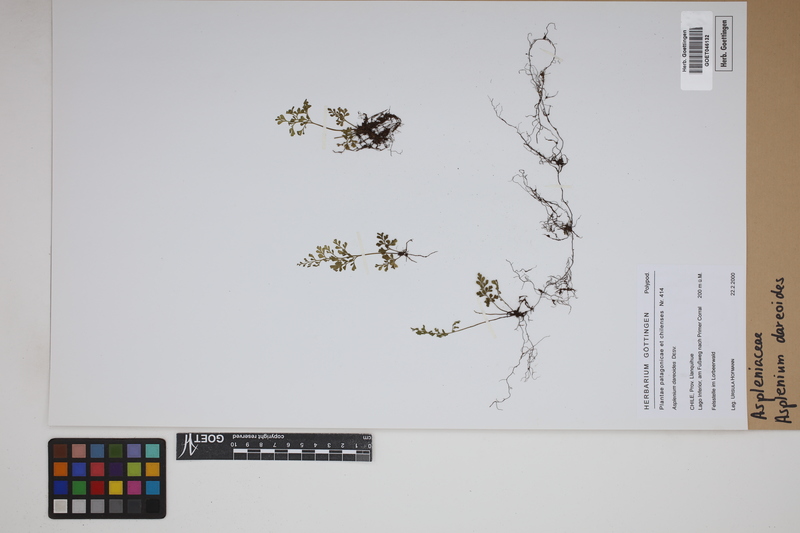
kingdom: Plantae
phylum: Tracheophyta
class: Polypodiopsida
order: Polypodiales
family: Aspleniaceae
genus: Asplenium
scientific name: Asplenium dareoides
